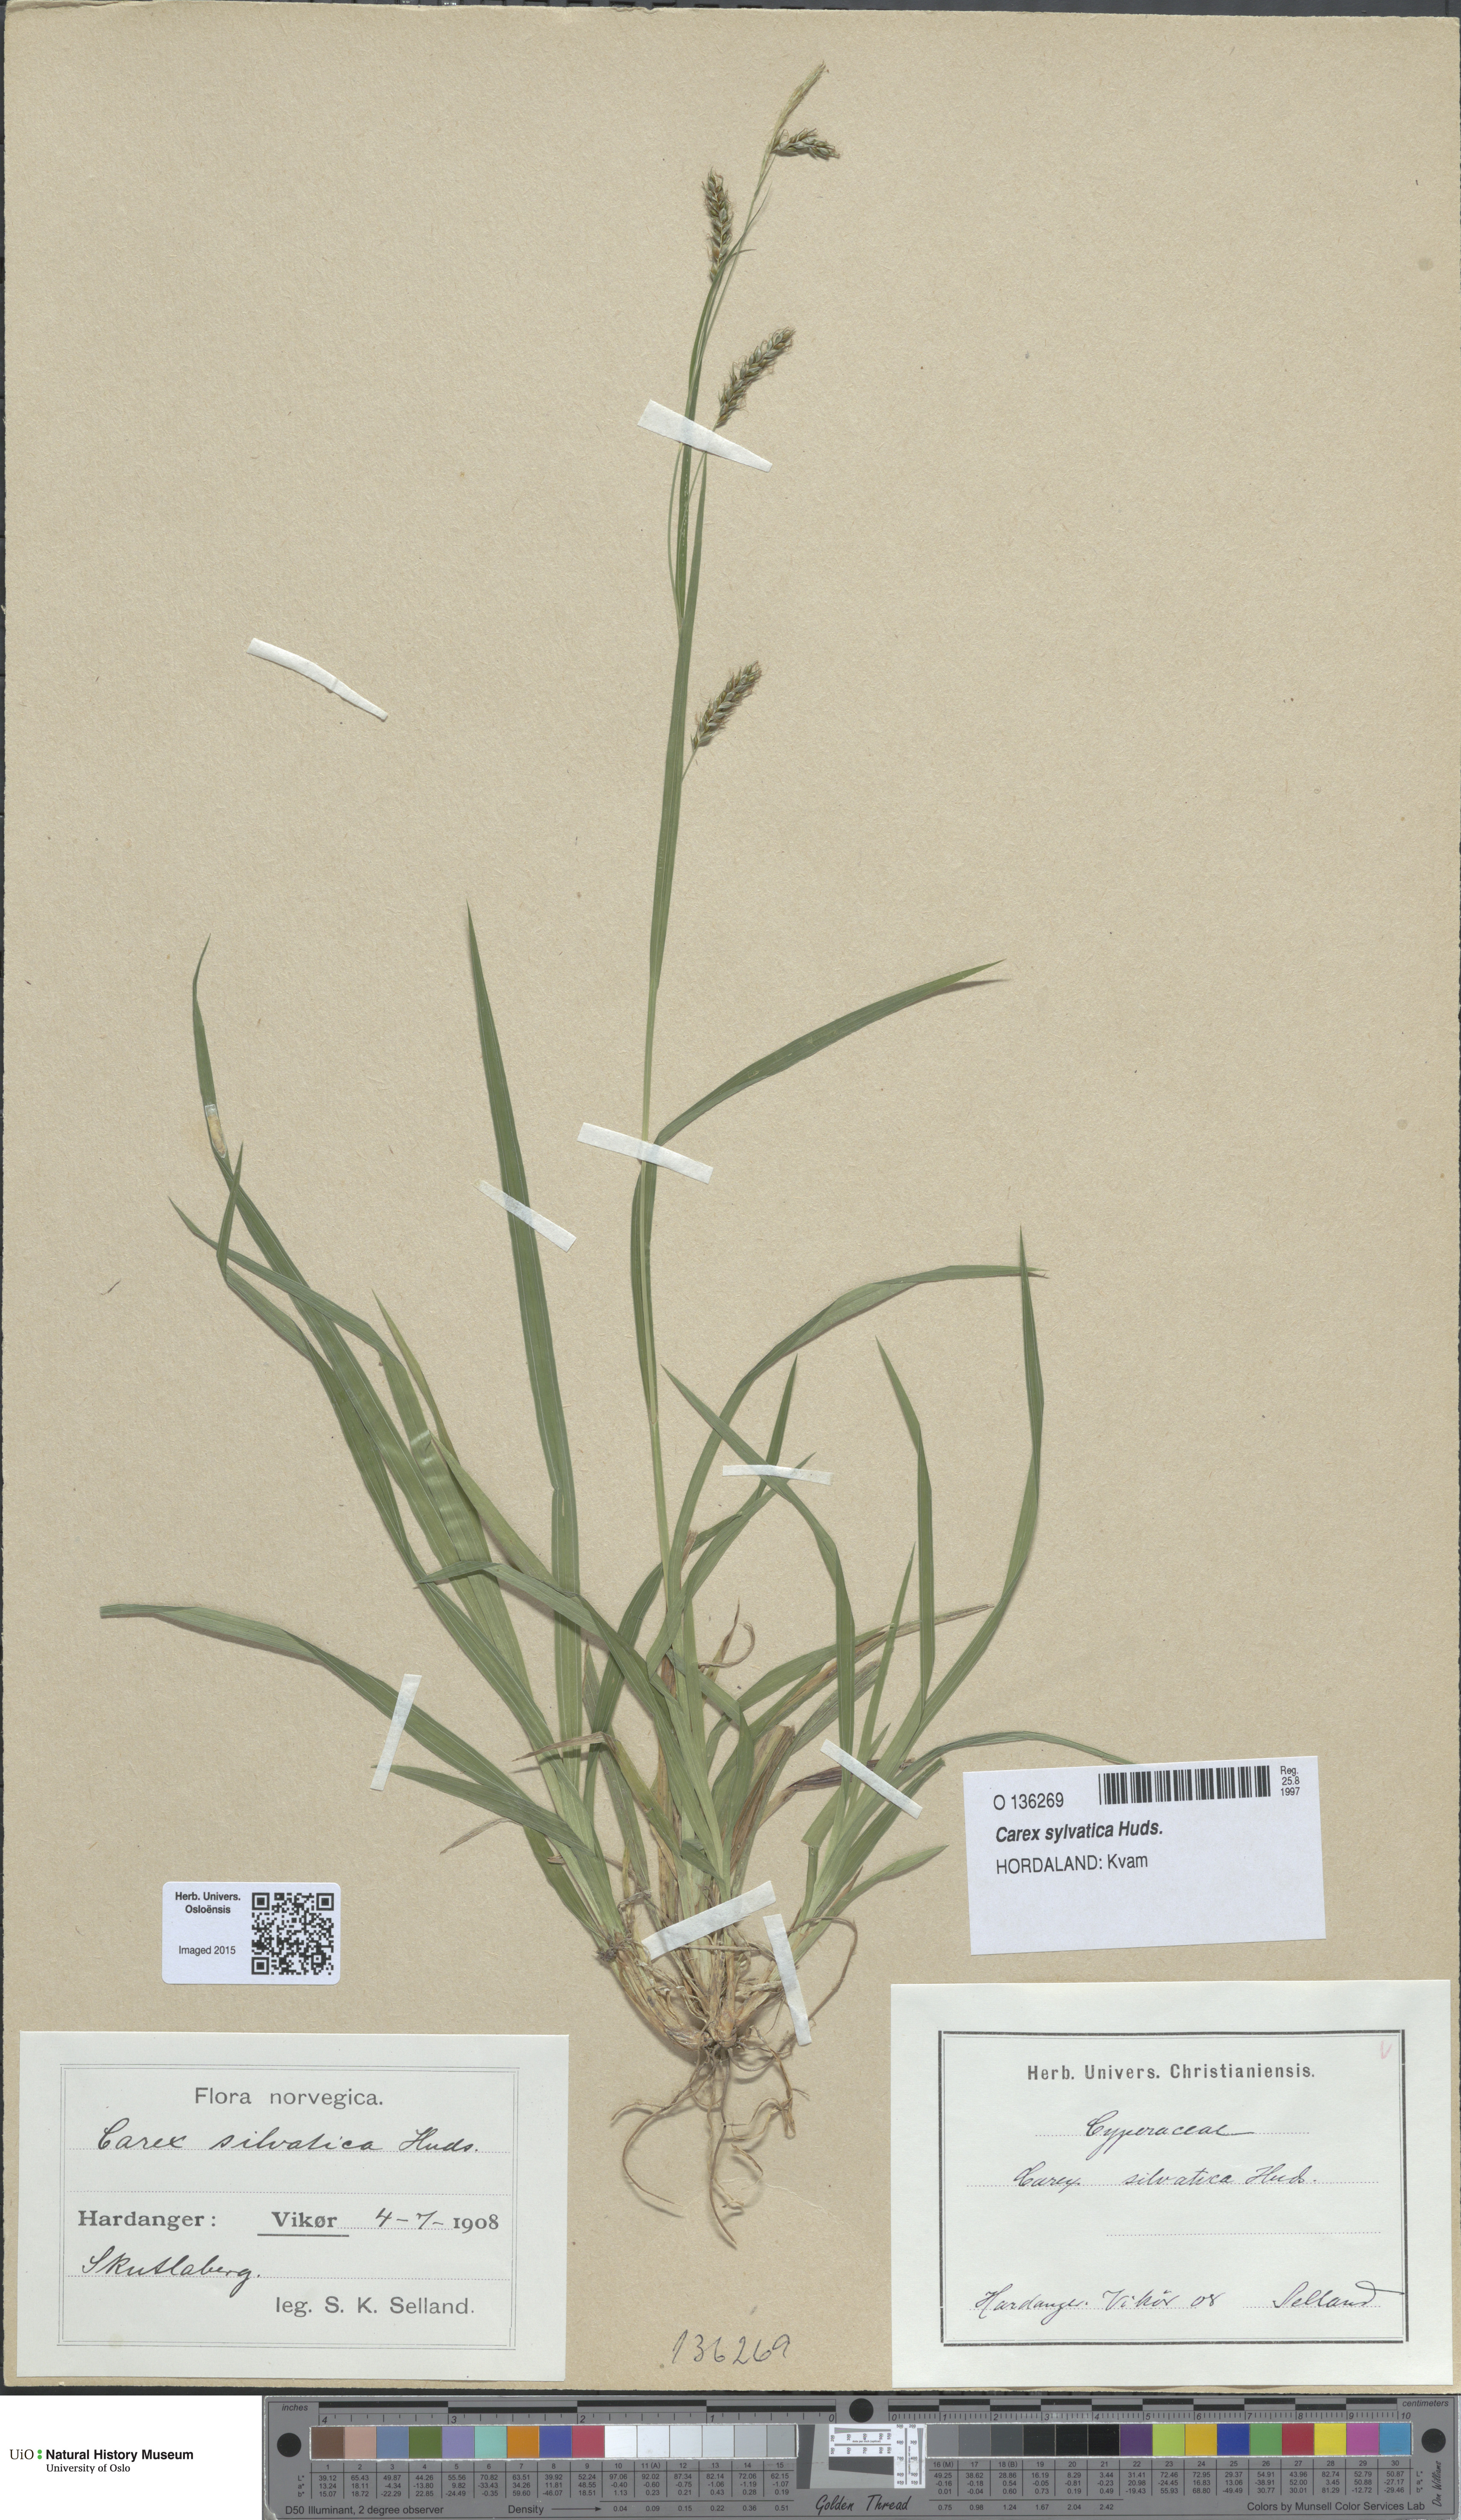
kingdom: Plantae
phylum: Tracheophyta
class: Liliopsida
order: Poales
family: Cyperaceae
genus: Carex
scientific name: Carex sylvatica
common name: Wood-sedge
